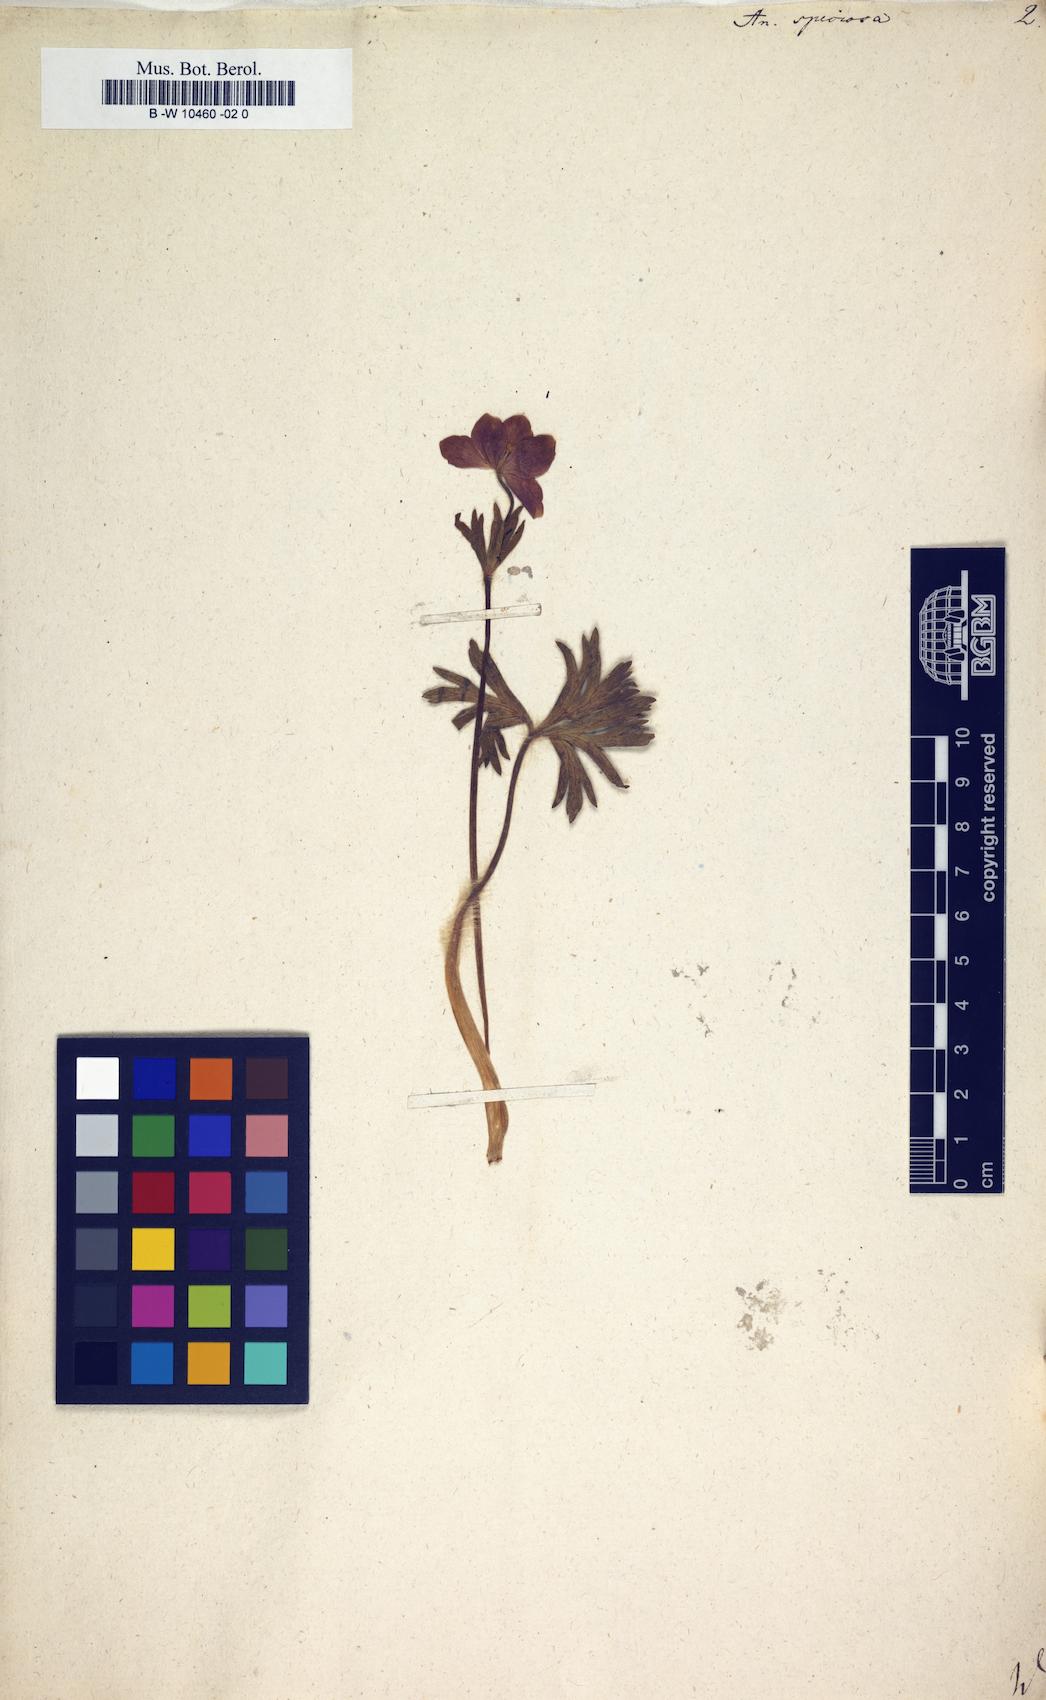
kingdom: Plantae
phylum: Tracheophyta
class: Magnoliopsida
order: Ranunculales
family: Ranunculaceae
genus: Anemonastrum
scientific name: Anemonastrum narcissiflorum
